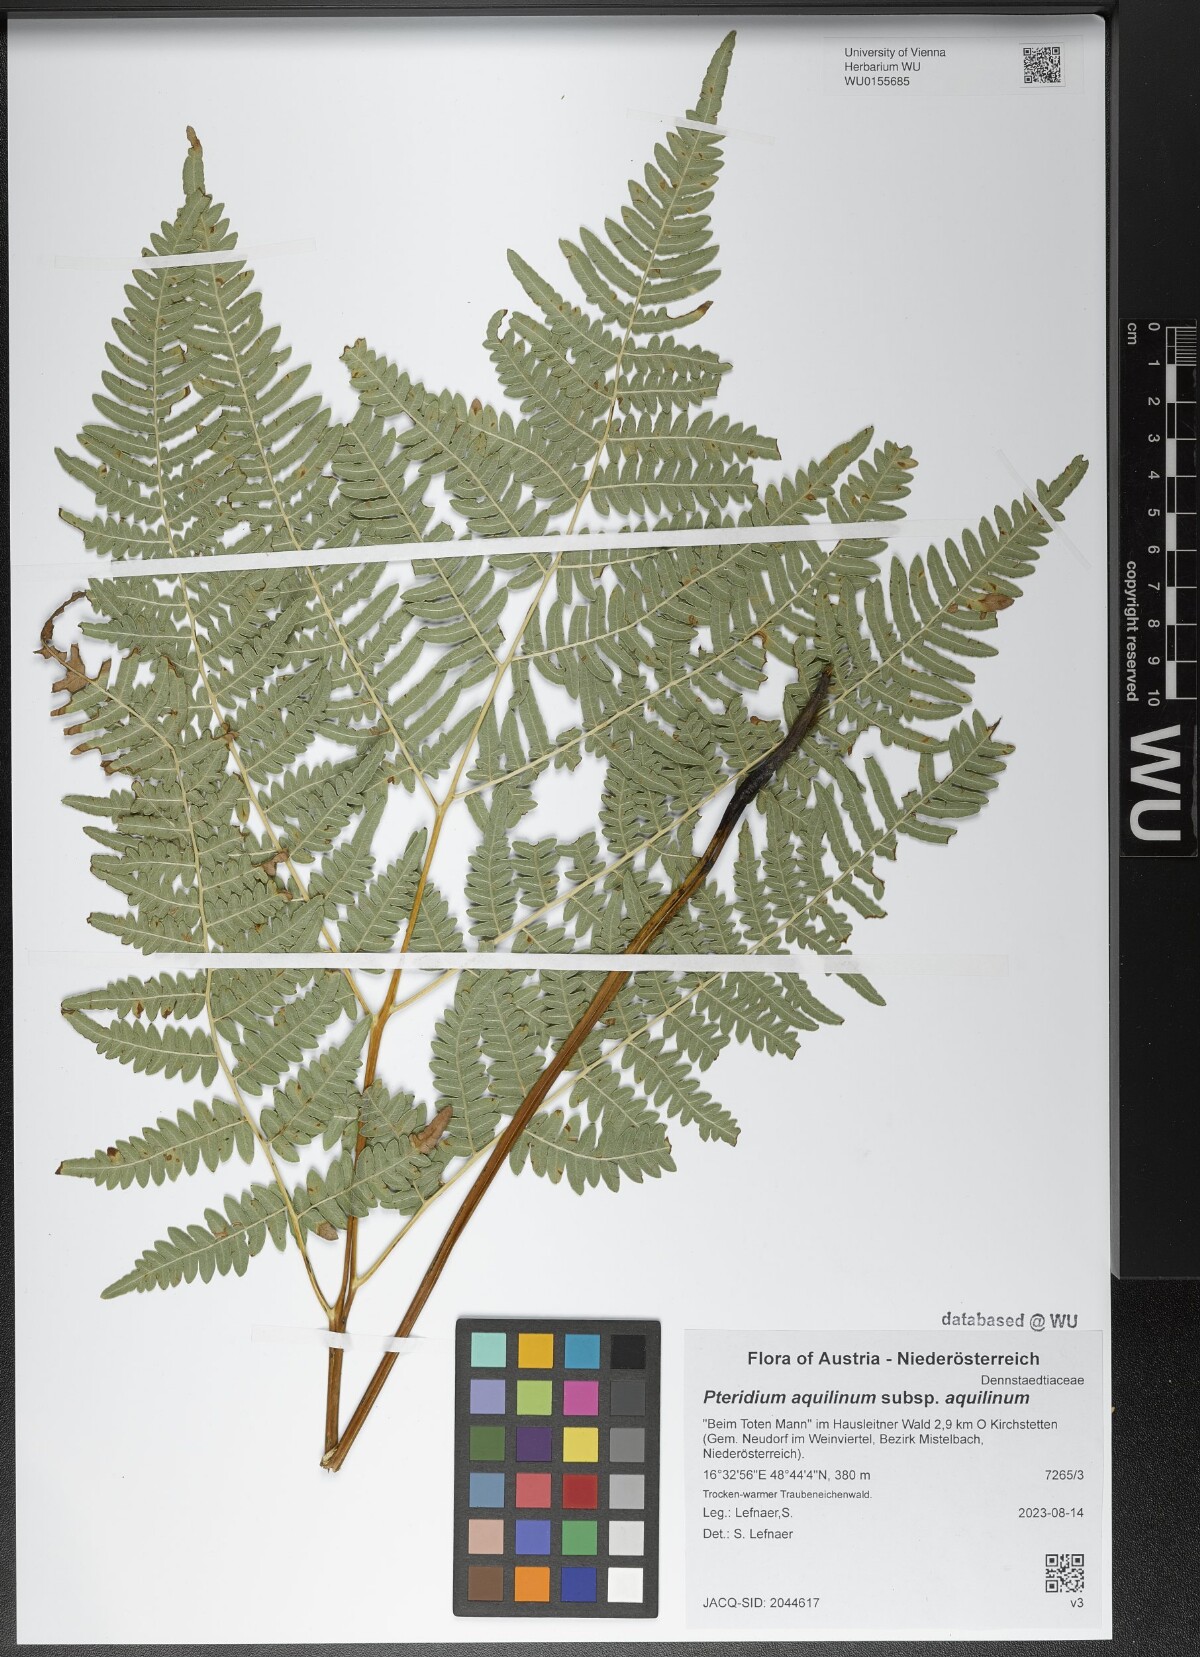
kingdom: Plantae
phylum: Tracheophyta
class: Polypodiopsida
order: Polypodiales
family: Dennstaedtiaceae
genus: Pteridium
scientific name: Pteridium aquilinum
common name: Bracken
